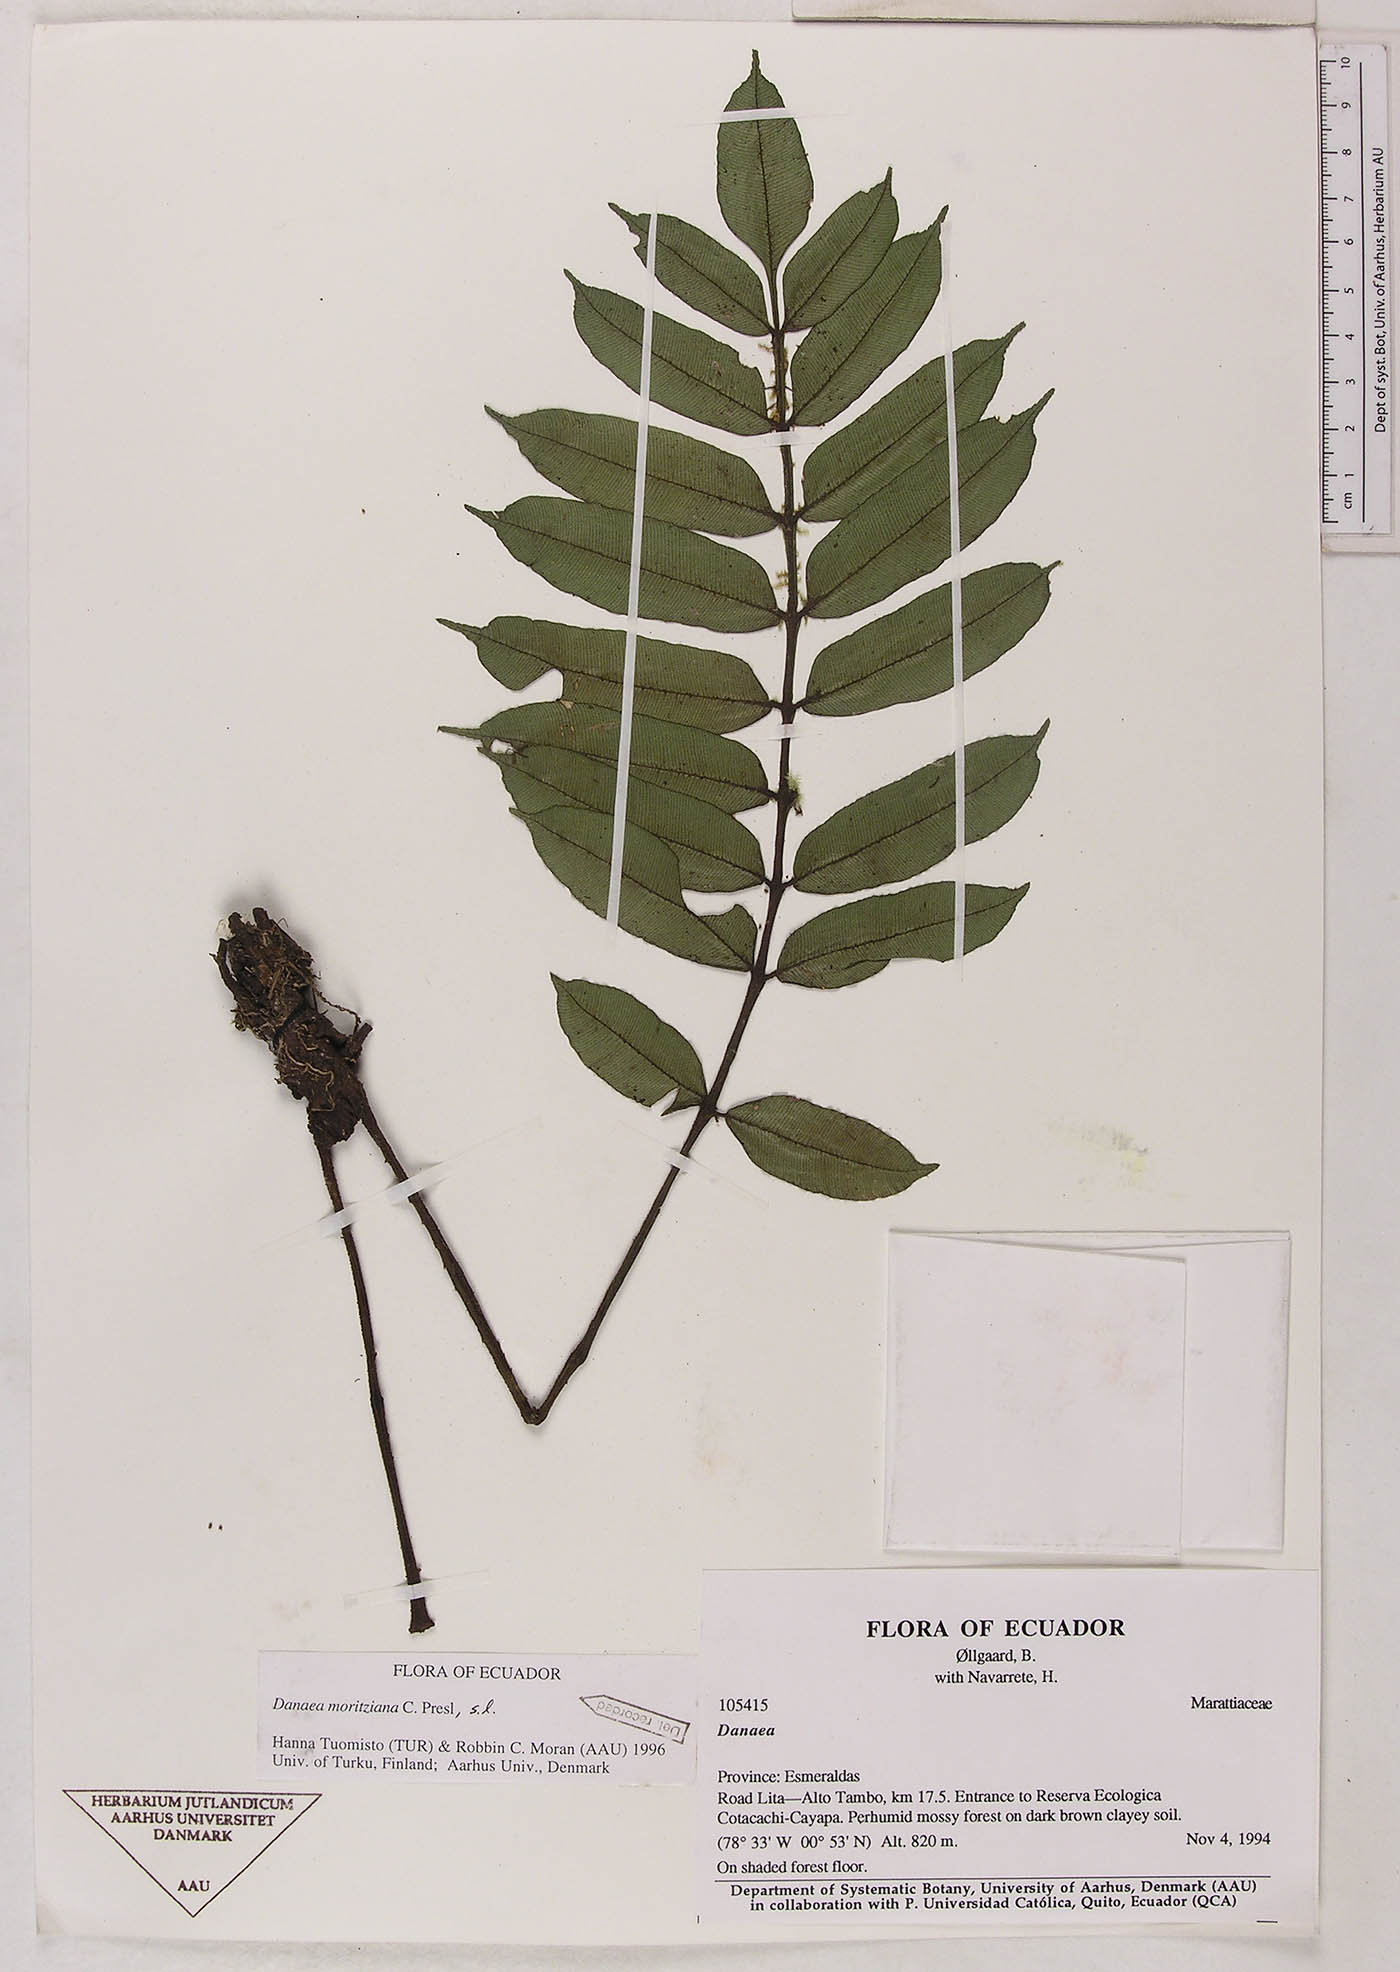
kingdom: Plantae
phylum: Tracheophyta
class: Polypodiopsida
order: Marattiales
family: Marattiaceae
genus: Danaea
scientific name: Danaea moritziana
